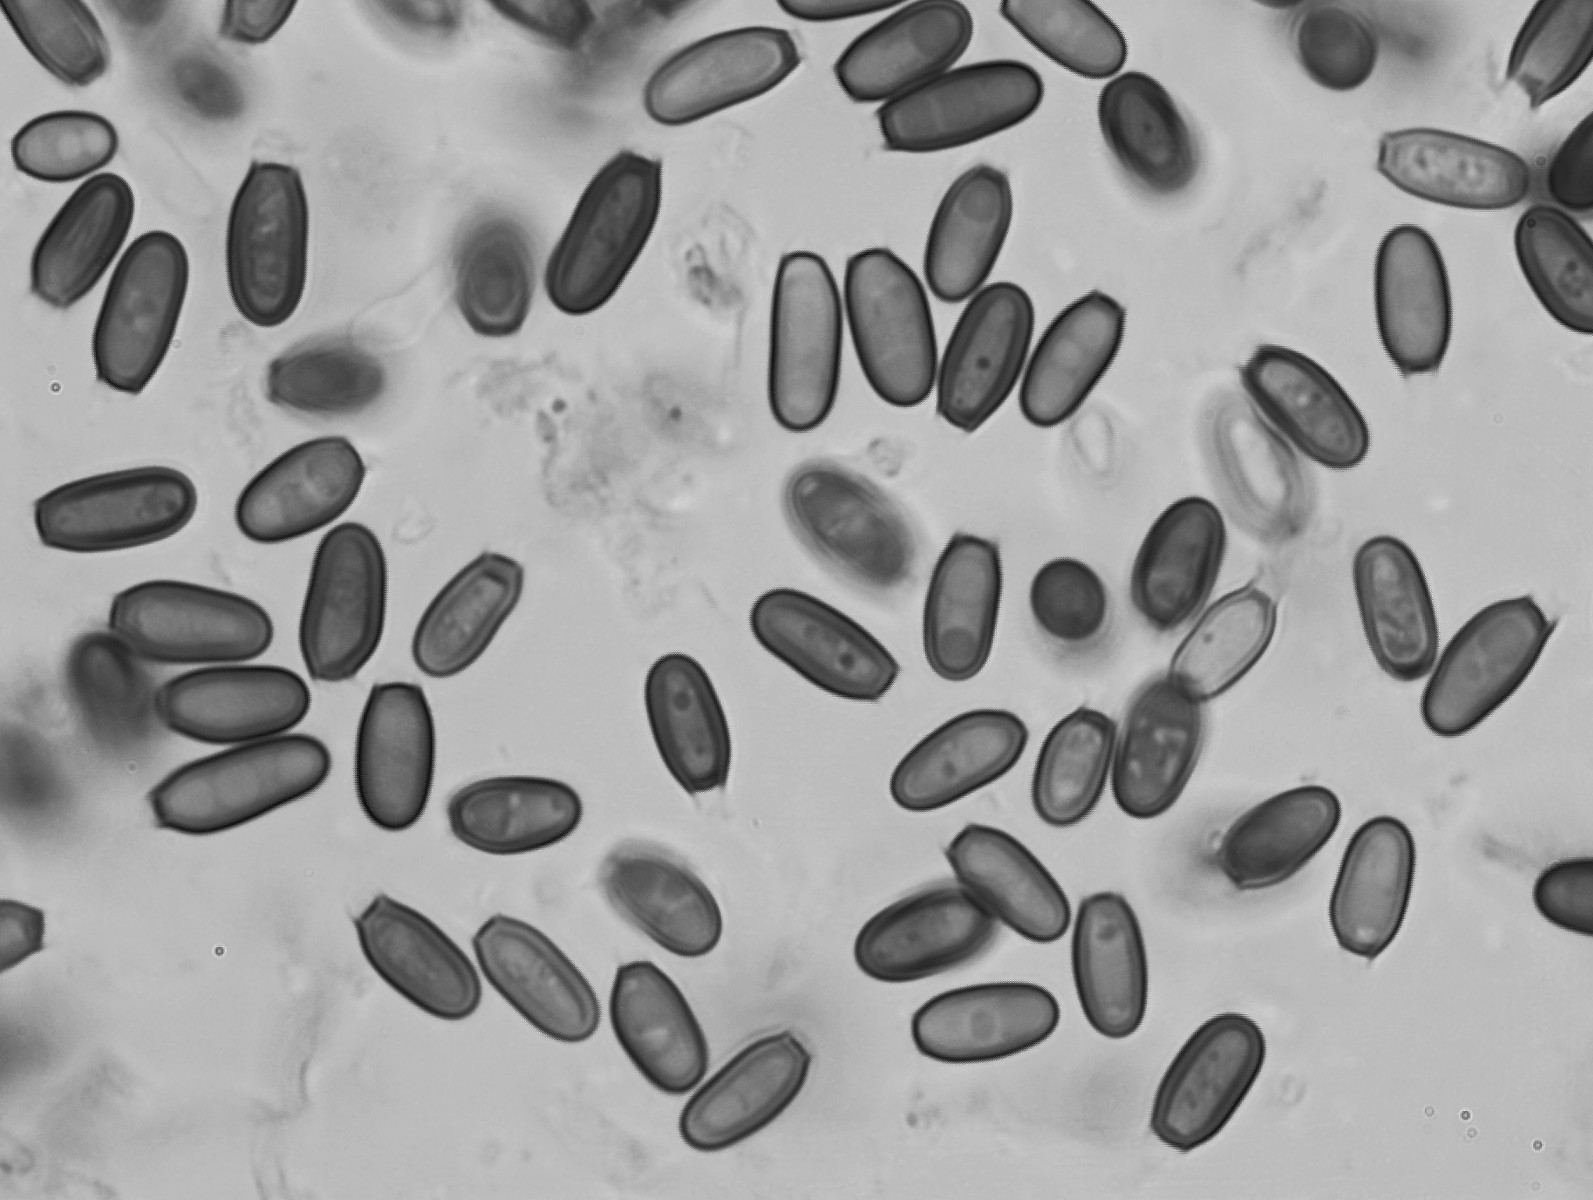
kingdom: Fungi
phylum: Basidiomycota
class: Agaricomycetes
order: Boletales
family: Paxillaceae
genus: Melanogaster
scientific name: Melanogaster broomeanus
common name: broget slimtrøffel
